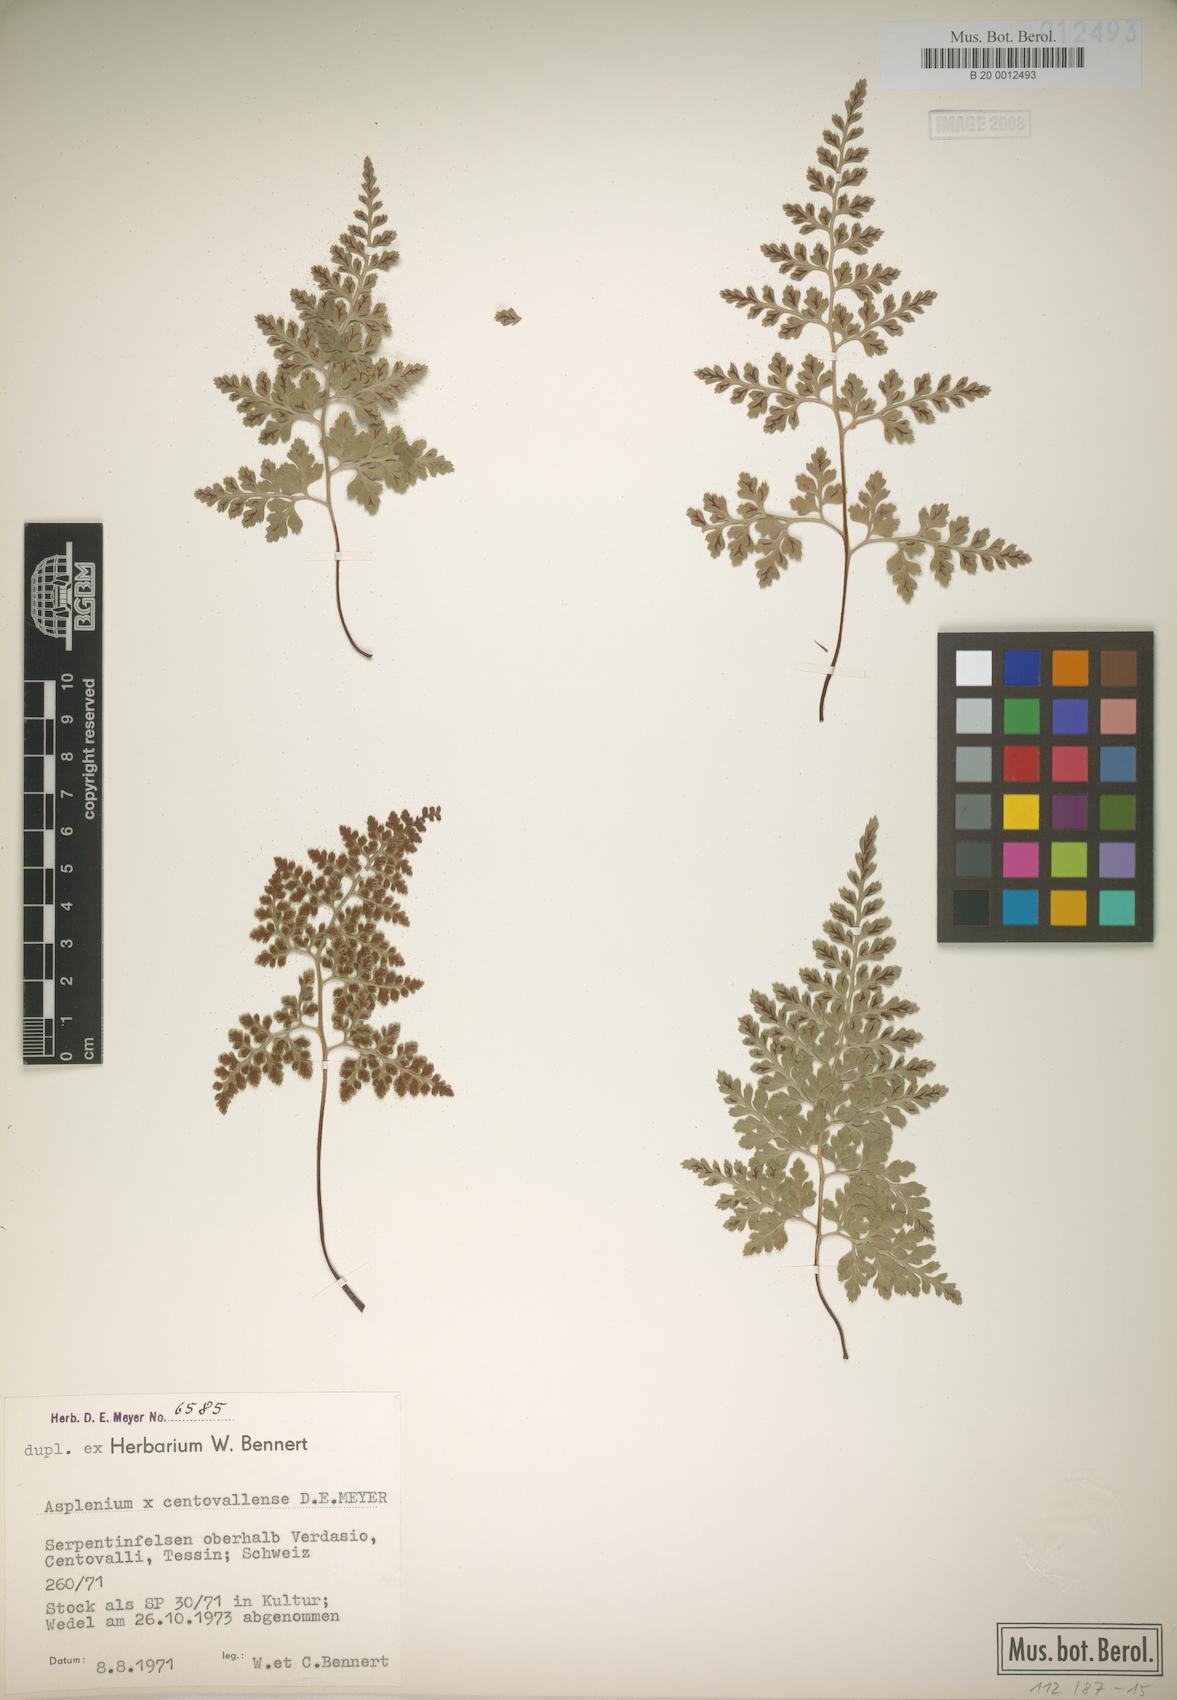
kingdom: Plantae
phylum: Tracheophyta
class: Polypodiopsida
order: Polypodiales
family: Aspleniaceae
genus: Asplenium
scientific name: Asplenium centovallense
